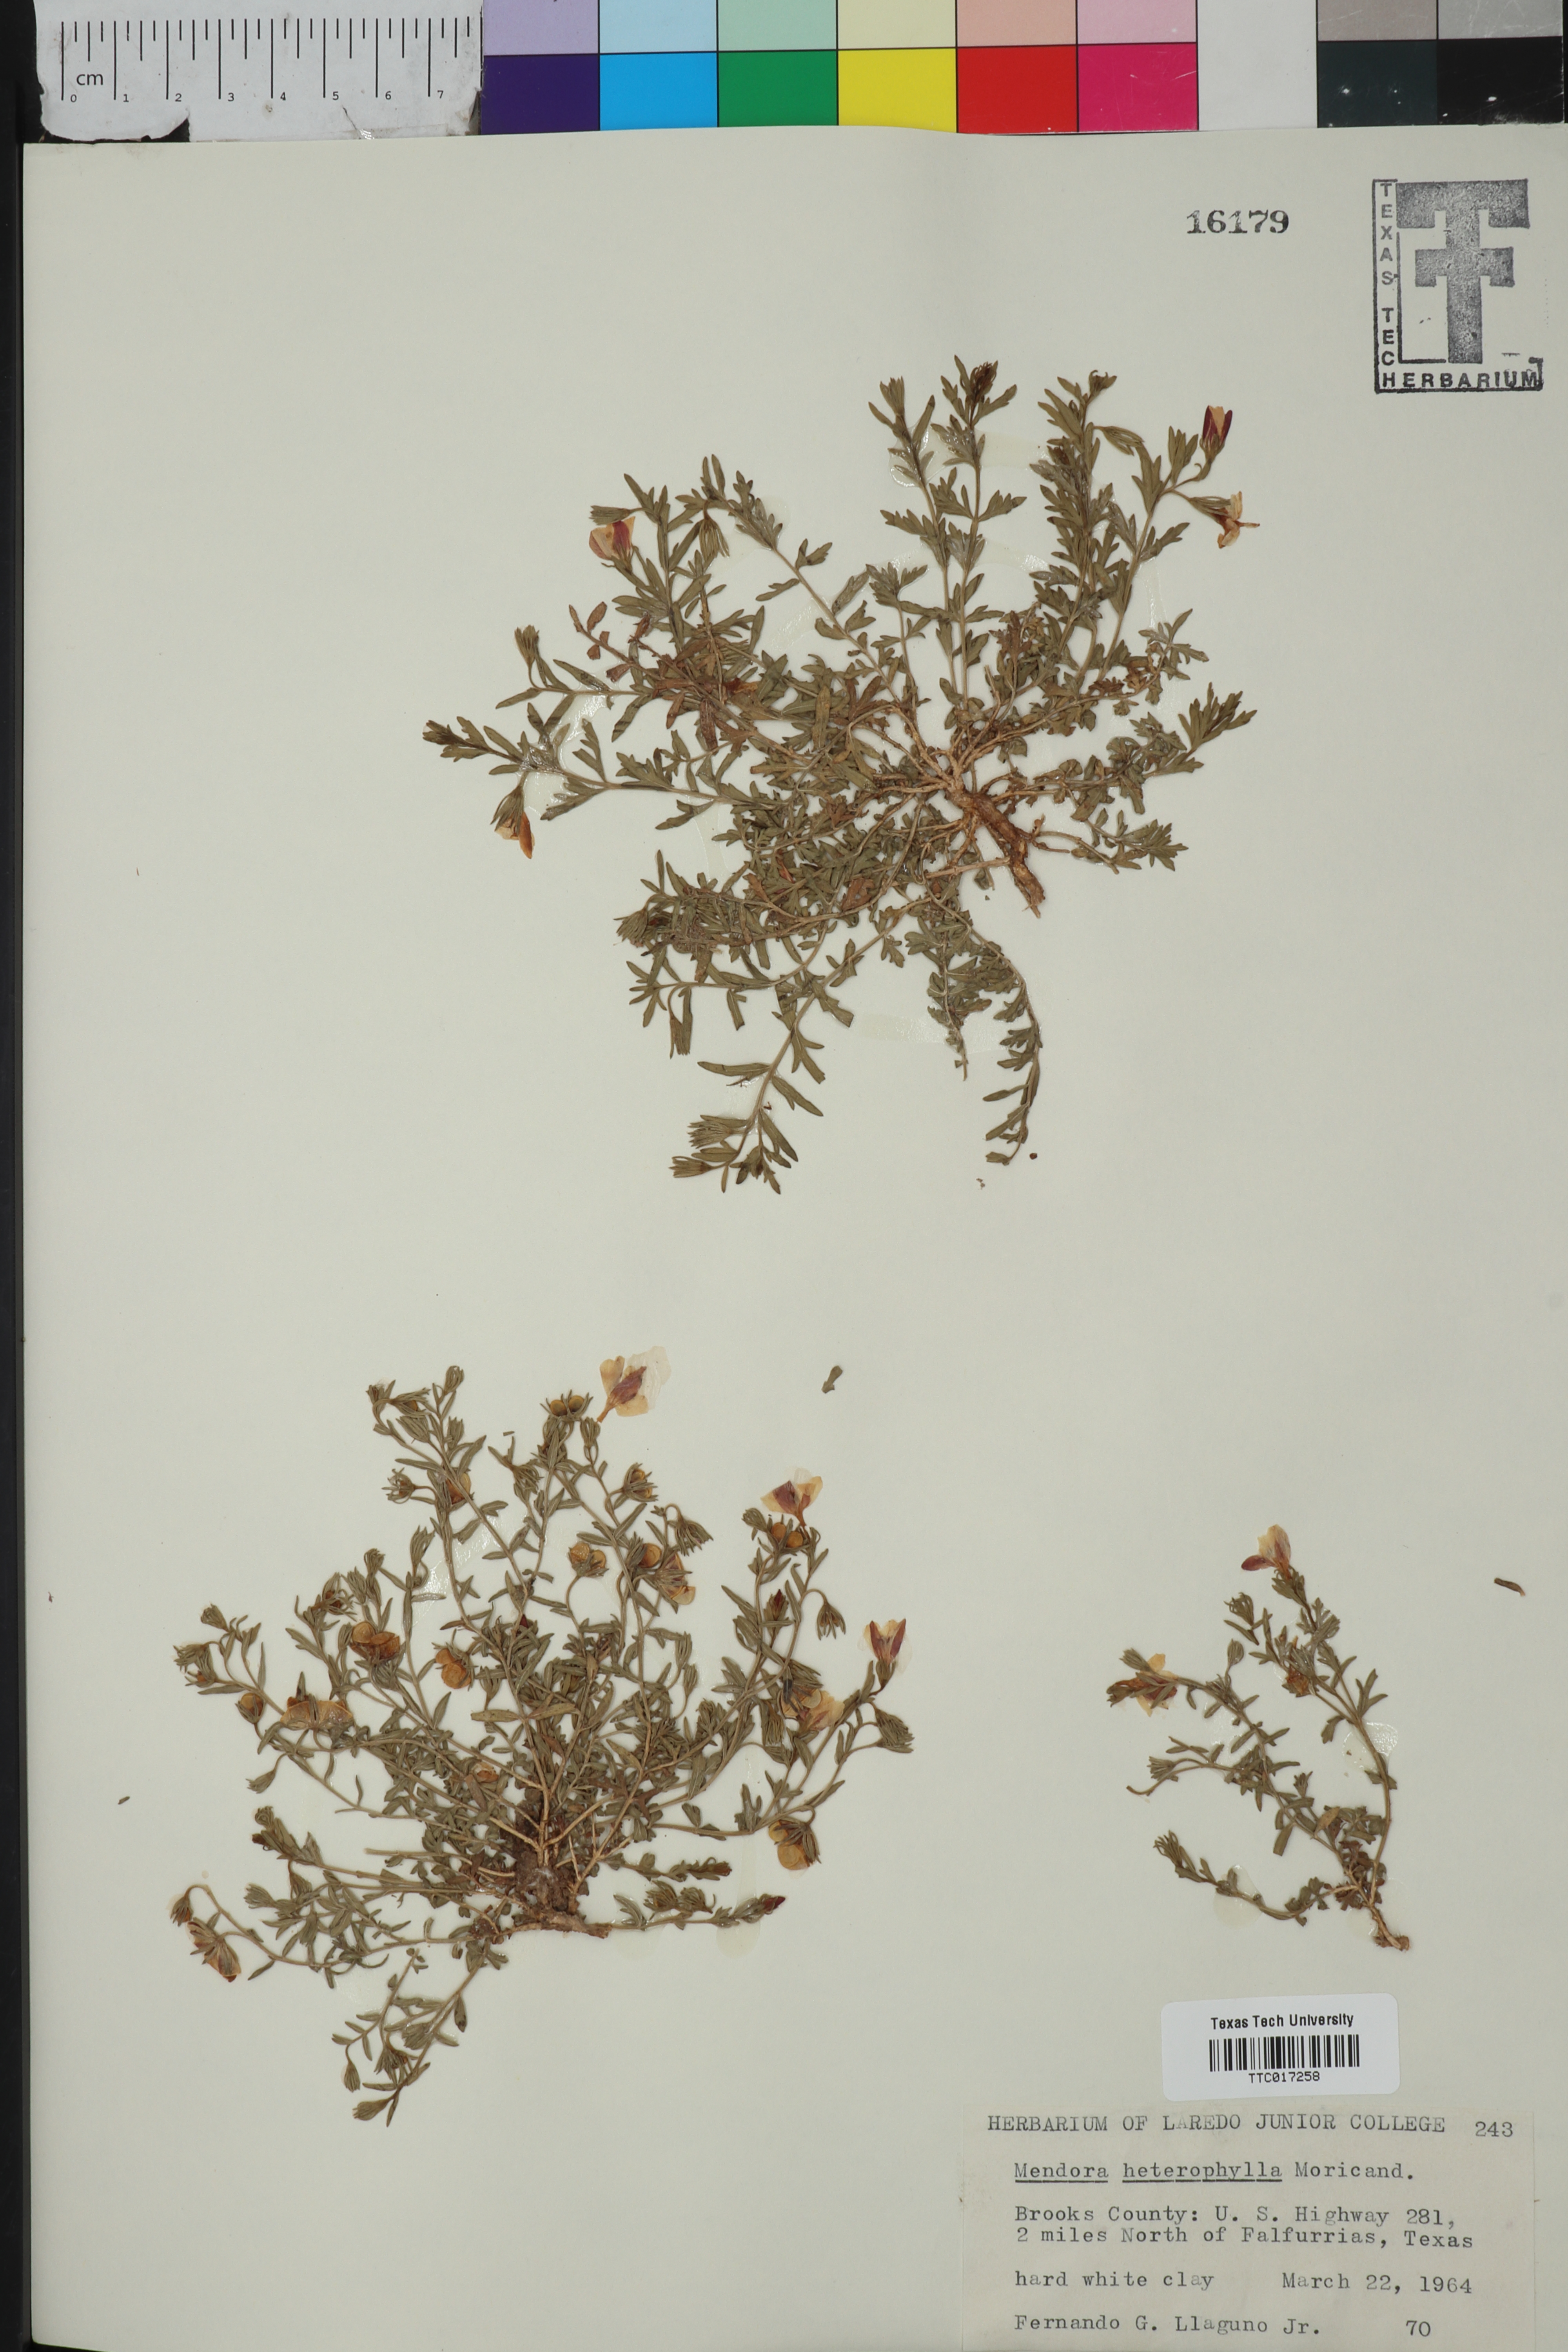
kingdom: Plantae
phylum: Tracheophyta
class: Magnoliopsida
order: Lamiales
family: Oleaceae
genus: Menodora
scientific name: Menodora heterophylla
